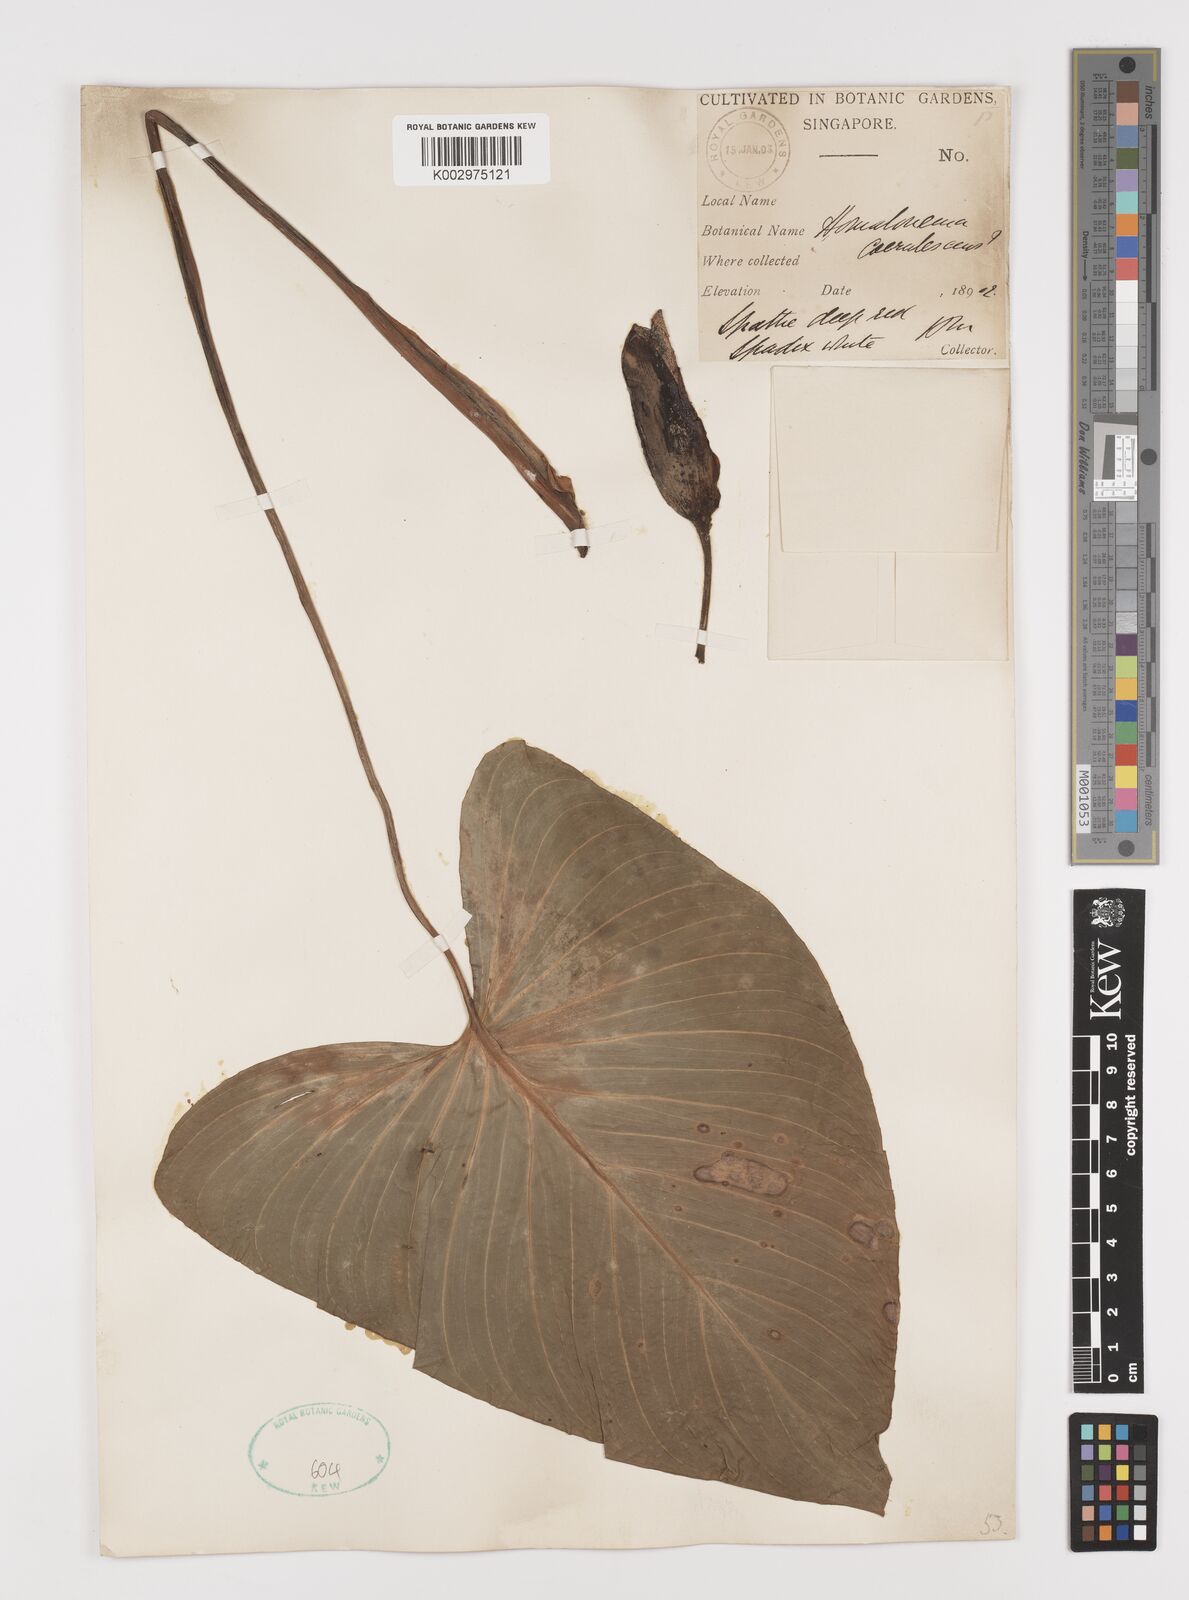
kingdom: Plantae
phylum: Tracheophyta
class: Liliopsida
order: Alismatales
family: Araceae
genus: Homalomena
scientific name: Homalomena pendula
